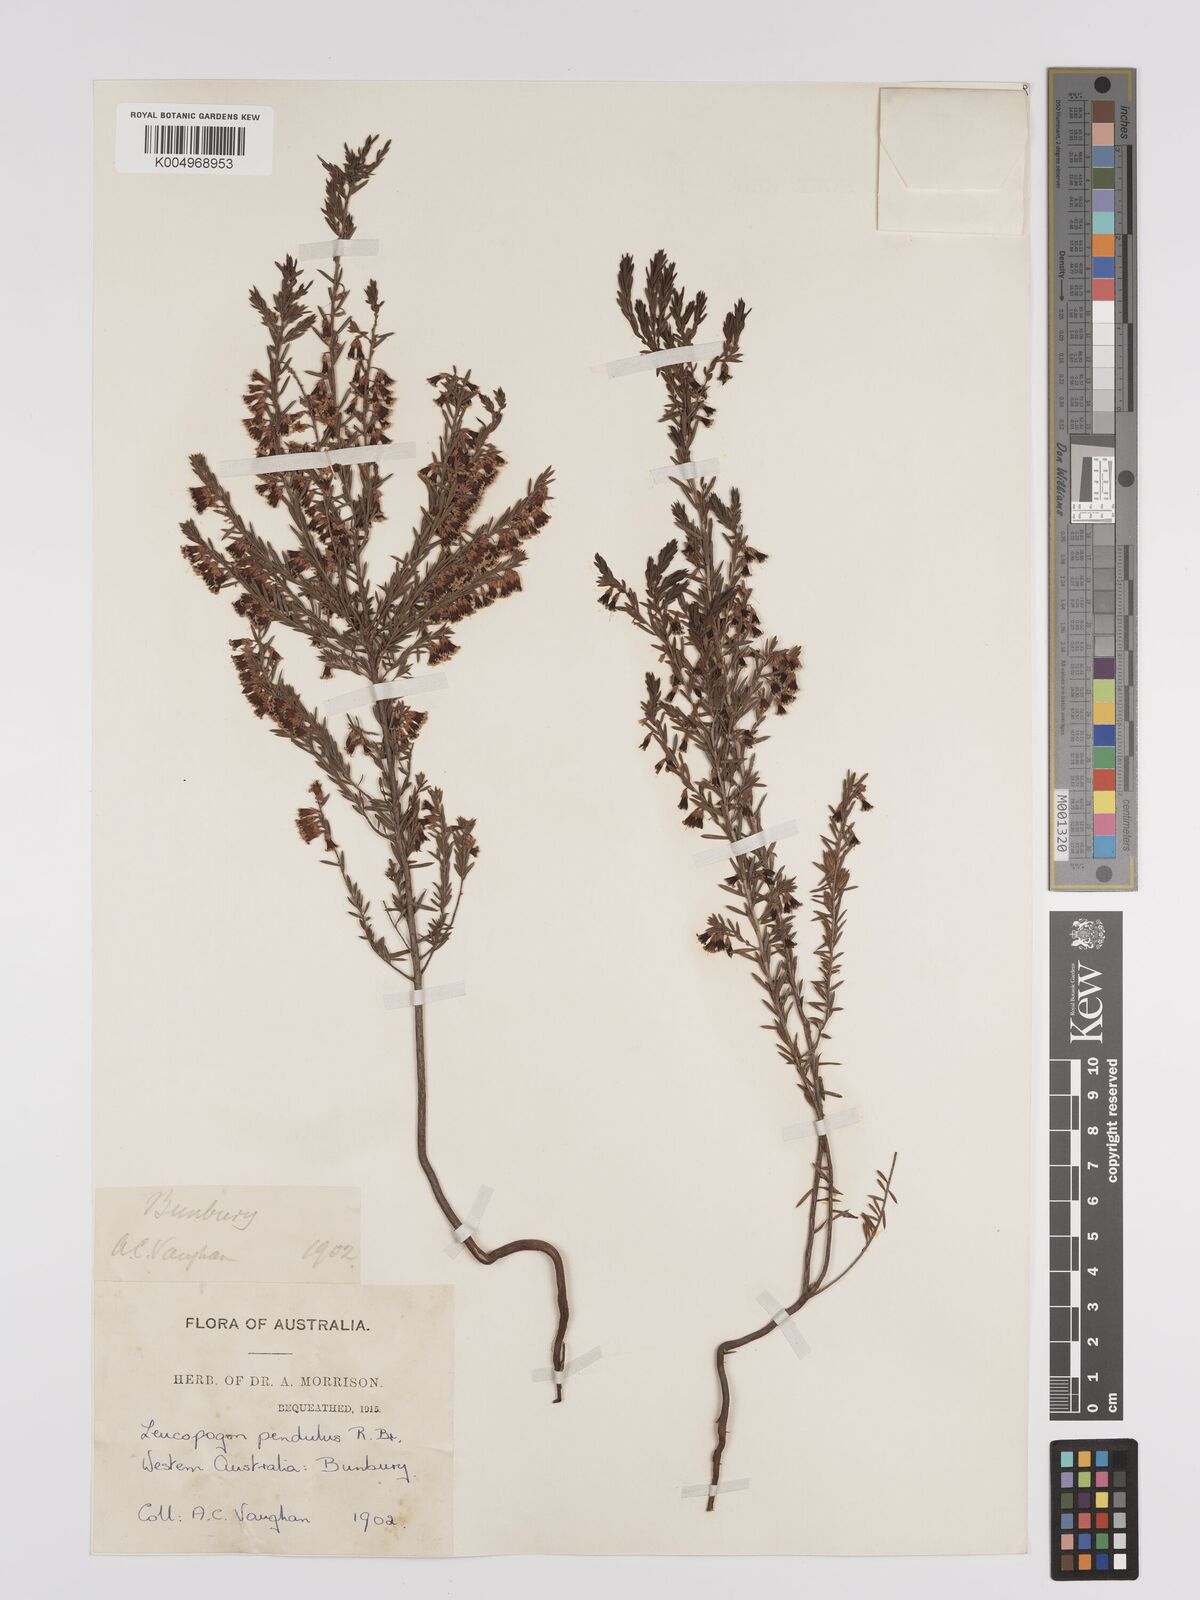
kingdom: Plantae
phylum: Tracheophyta
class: Magnoliopsida
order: Ericales
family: Ericaceae
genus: Styphelia
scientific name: Styphelia pendula
